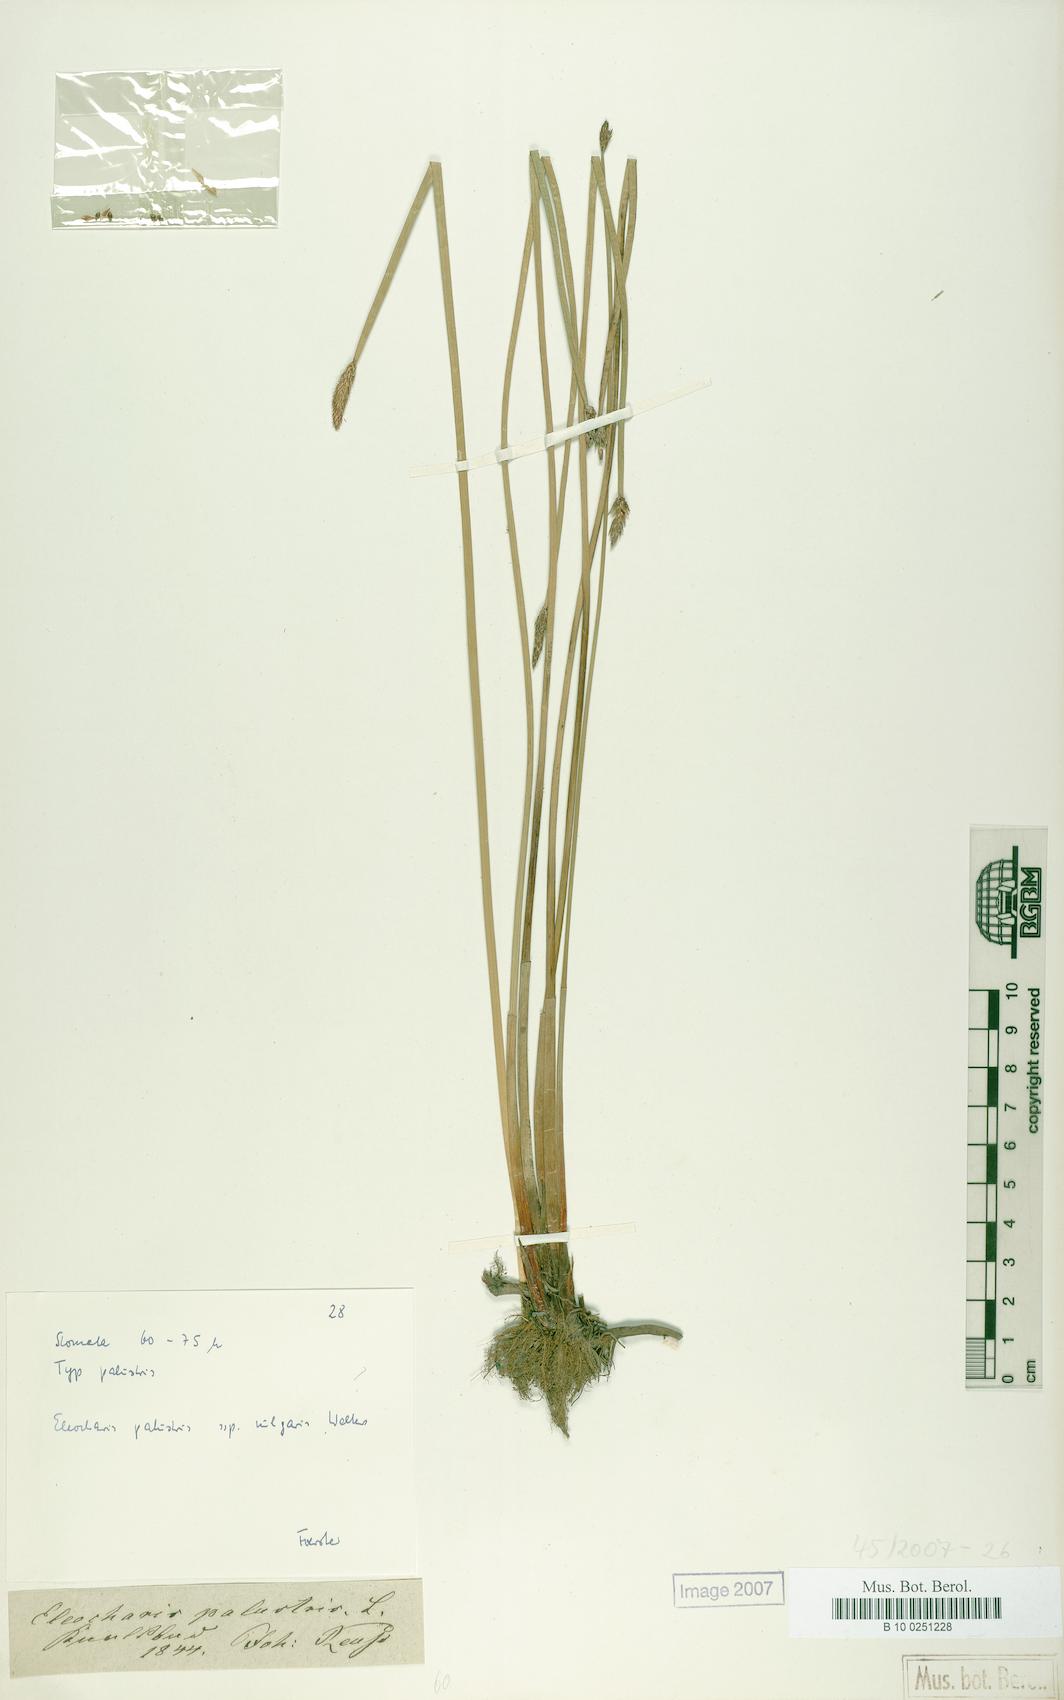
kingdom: Plantae
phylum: Tracheophyta
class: Liliopsida
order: Poales
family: Cyperaceae
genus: Eleocharis
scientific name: Eleocharis palustris
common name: Common spike-rush
